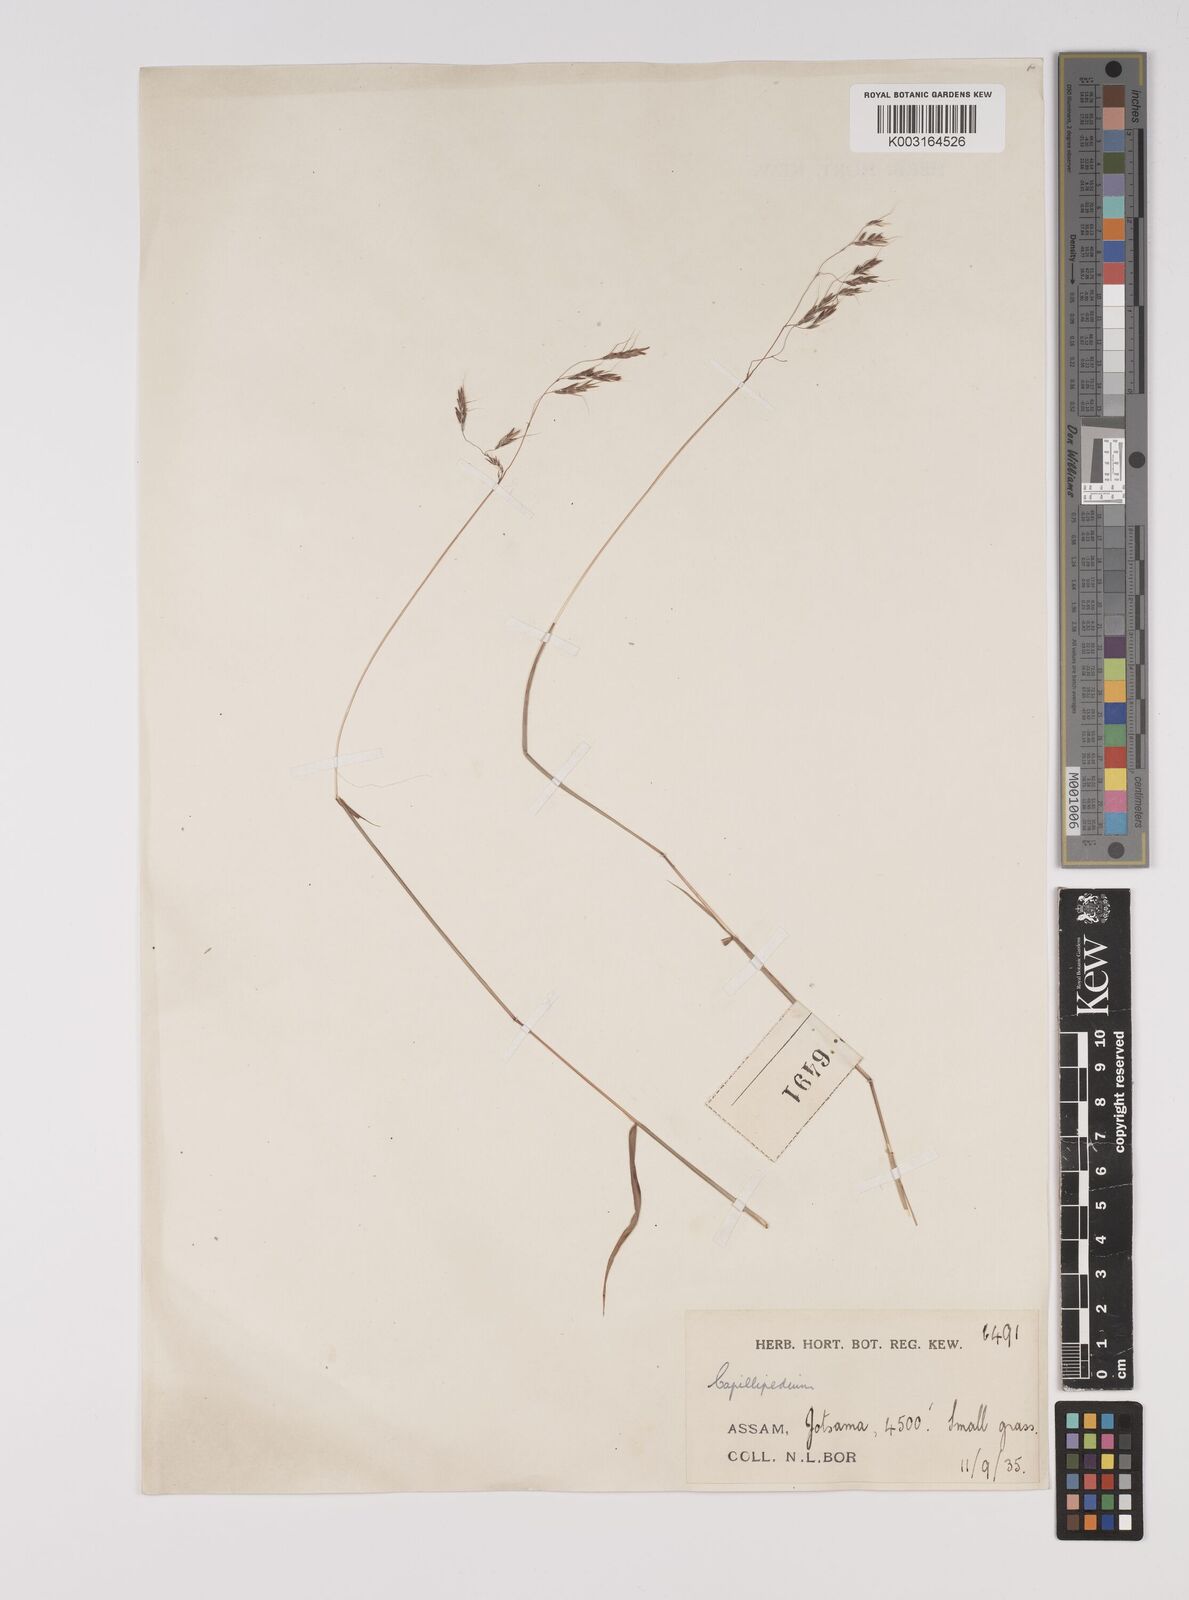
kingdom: Plantae
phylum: Tracheophyta
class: Liliopsida
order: Poales
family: Poaceae
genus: Capillipedium
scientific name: Capillipedium huegelii
